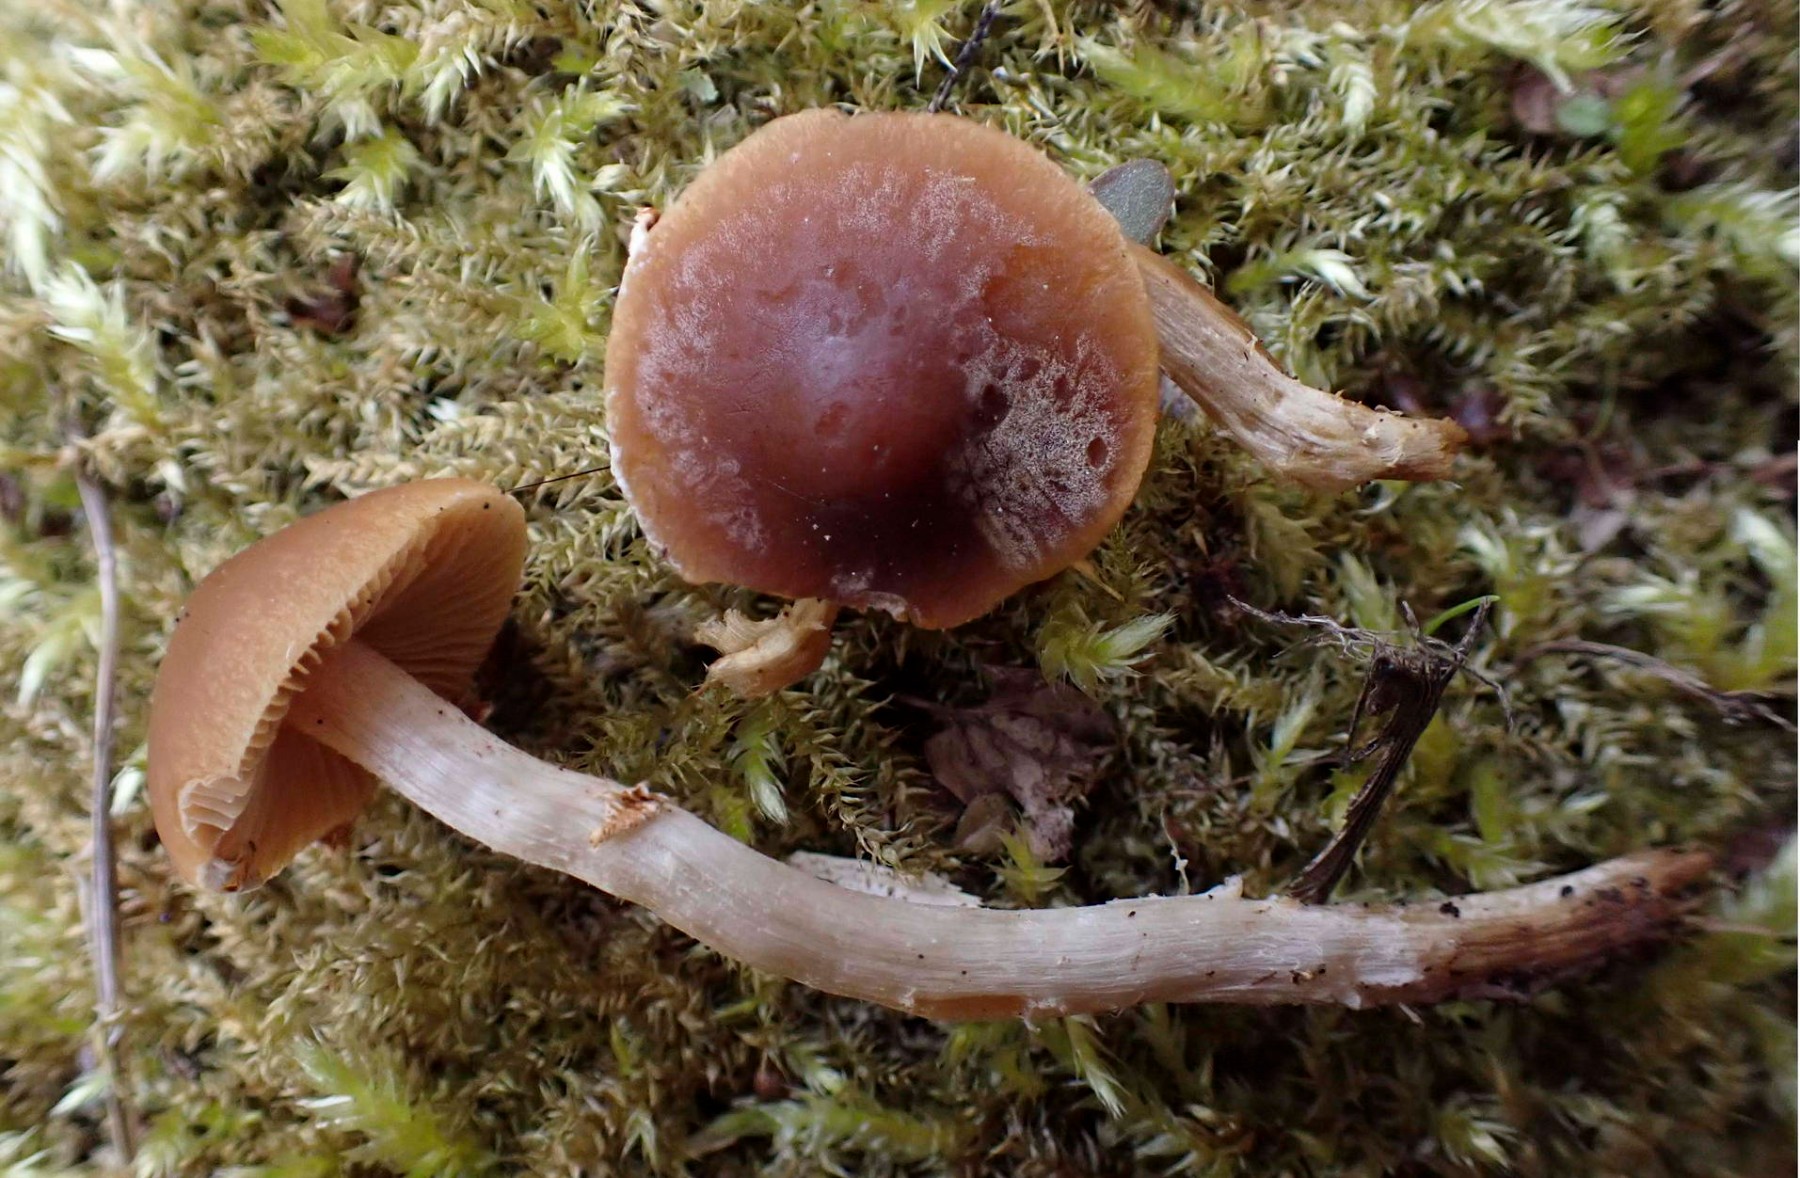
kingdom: Fungi
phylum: Basidiomycota
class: Agaricomycetes
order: Agaricales
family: Bolbitiaceae
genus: Conocybe
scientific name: Conocybe aporos
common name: tidlig dansehat
